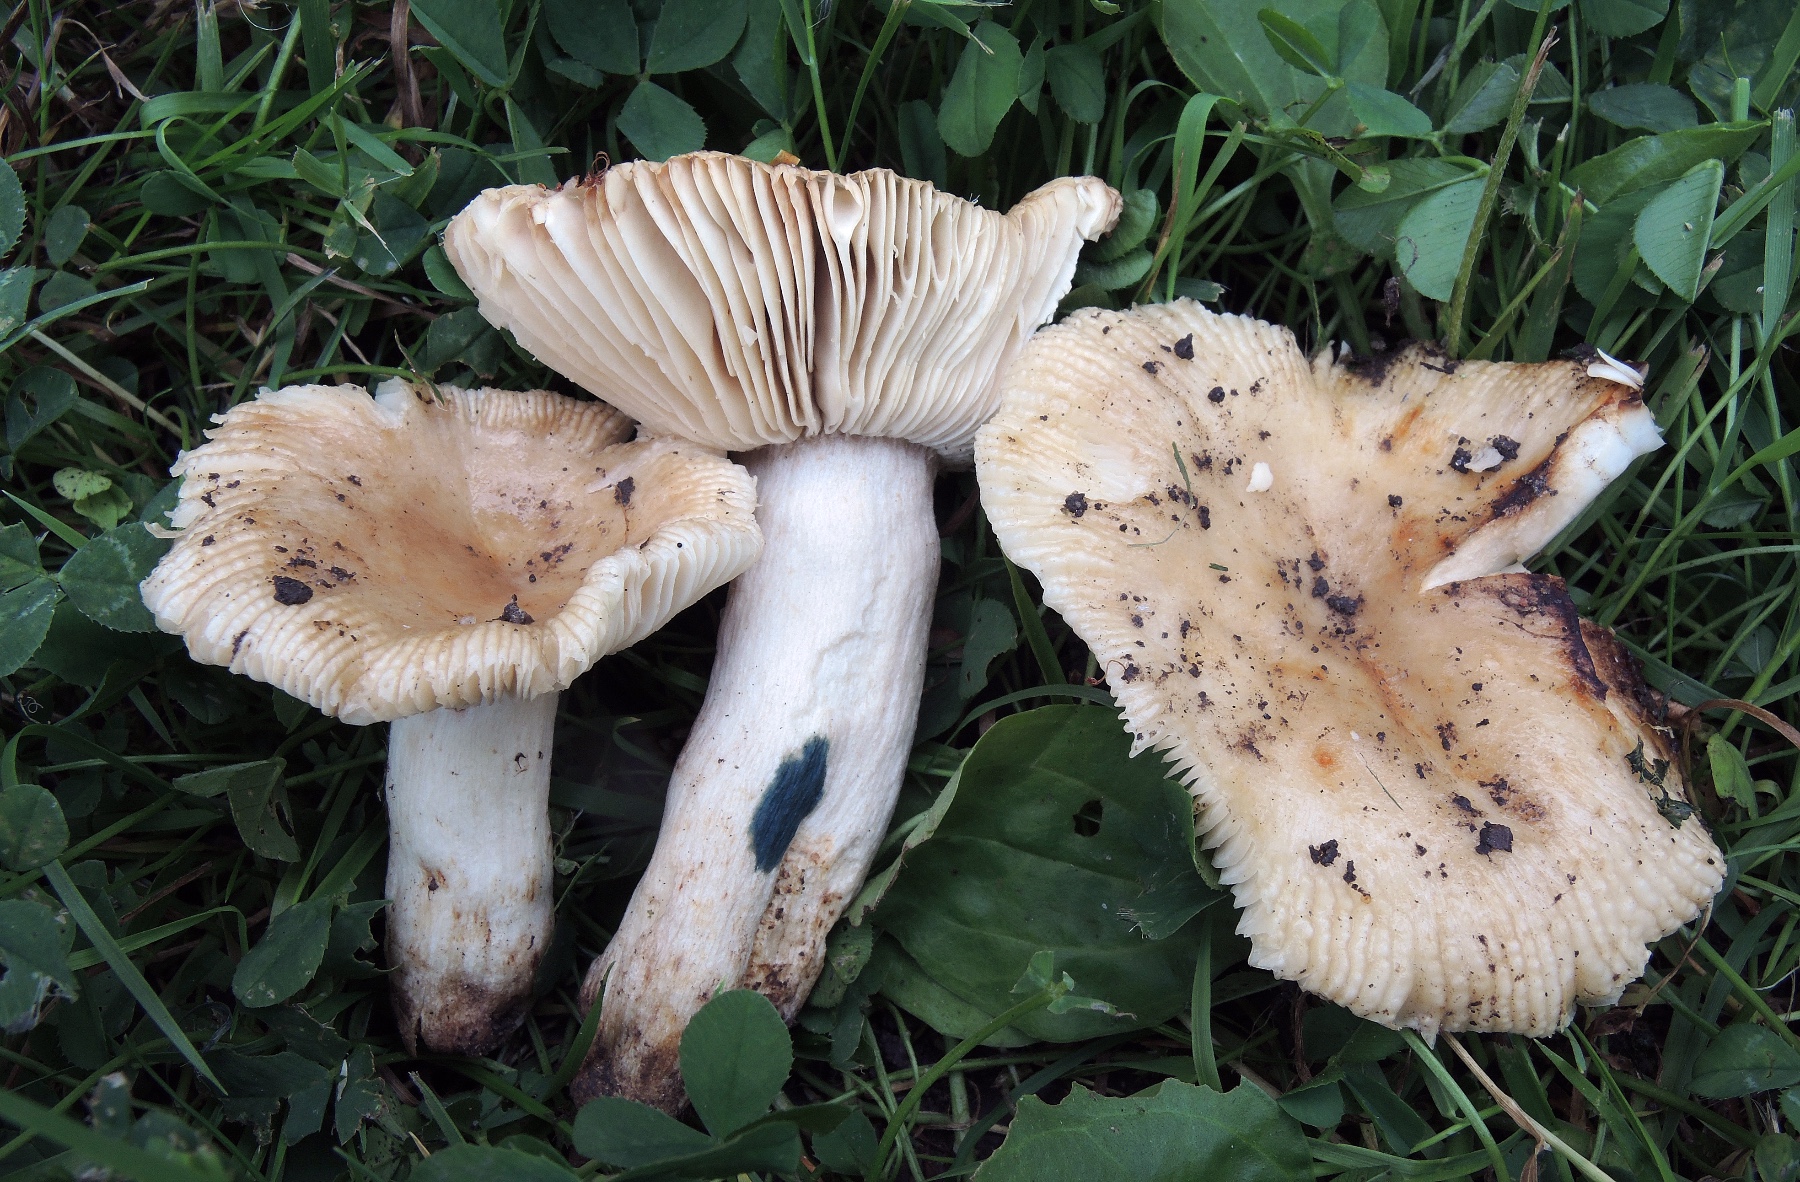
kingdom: Fungi
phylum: Basidiomycota
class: Agaricomycetes
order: Russulales
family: Russulaceae
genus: Russula
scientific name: Russula pectinata
